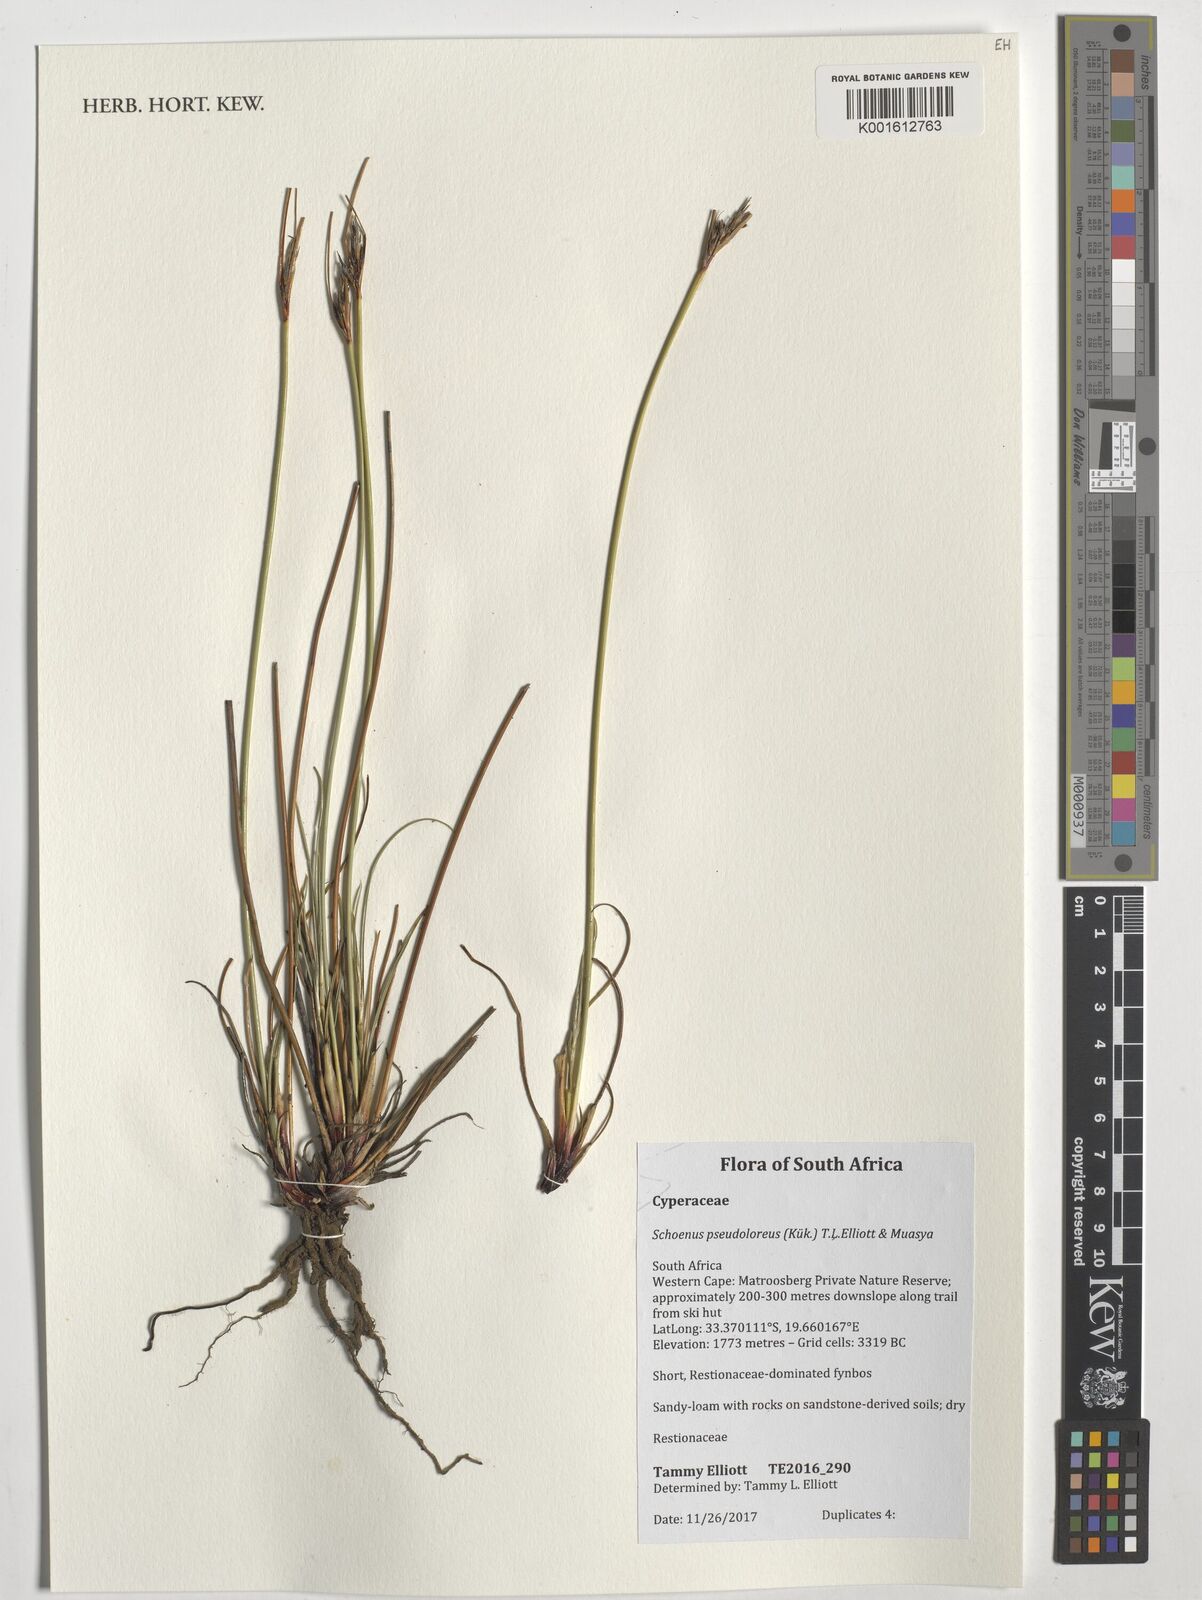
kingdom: Plantae
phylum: Tracheophyta
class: Liliopsida
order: Poales
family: Cyperaceae
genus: Schoenus
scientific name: Schoenus pseudoloreus
